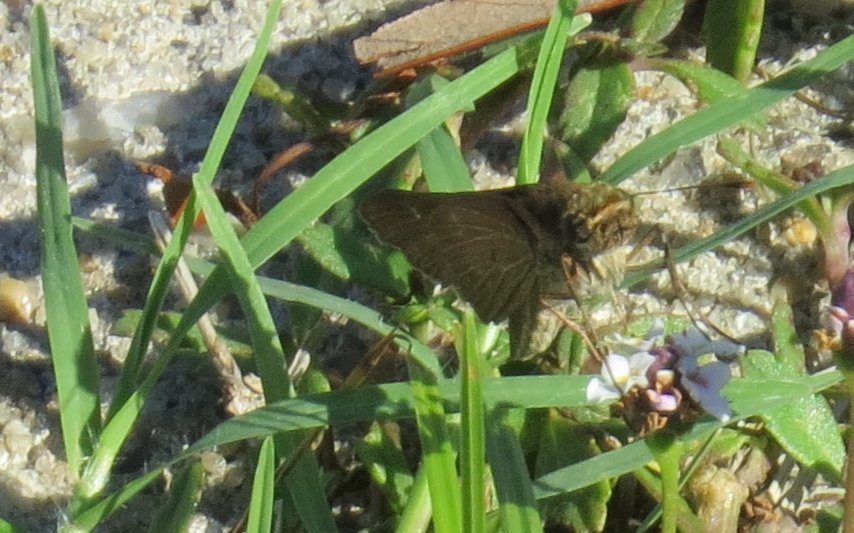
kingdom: Animalia
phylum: Arthropoda
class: Insecta
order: Lepidoptera
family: Hesperiidae
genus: Panoquina
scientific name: Panoquina ocola
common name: Ocola Skipper
